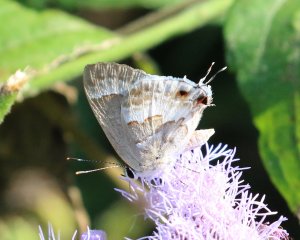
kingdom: Animalia
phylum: Arthropoda
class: Insecta
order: Lepidoptera
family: Lycaenidae
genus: Strymon
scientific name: Strymon albata
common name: White Scrub-Hairstreak
